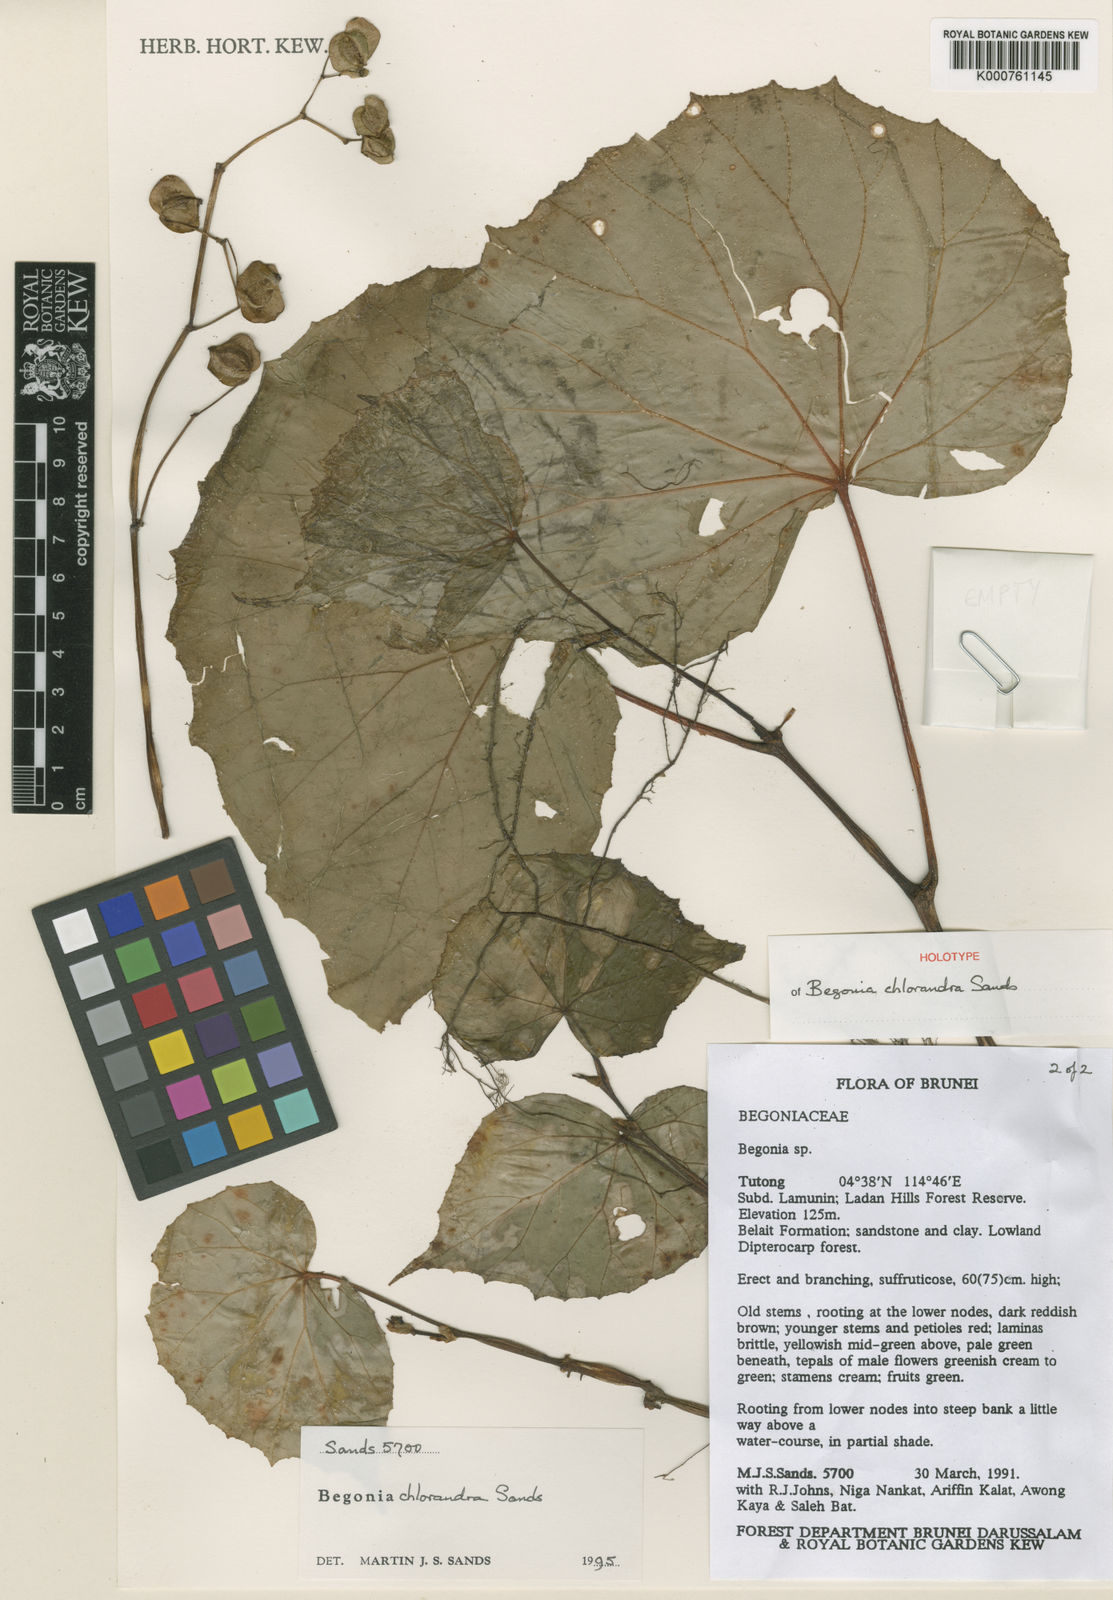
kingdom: Plantae
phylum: Tracheophyta
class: Magnoliopsida
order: Cucurbitales
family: Begoniaceae
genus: Begonia
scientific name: Begonia chlorandra
